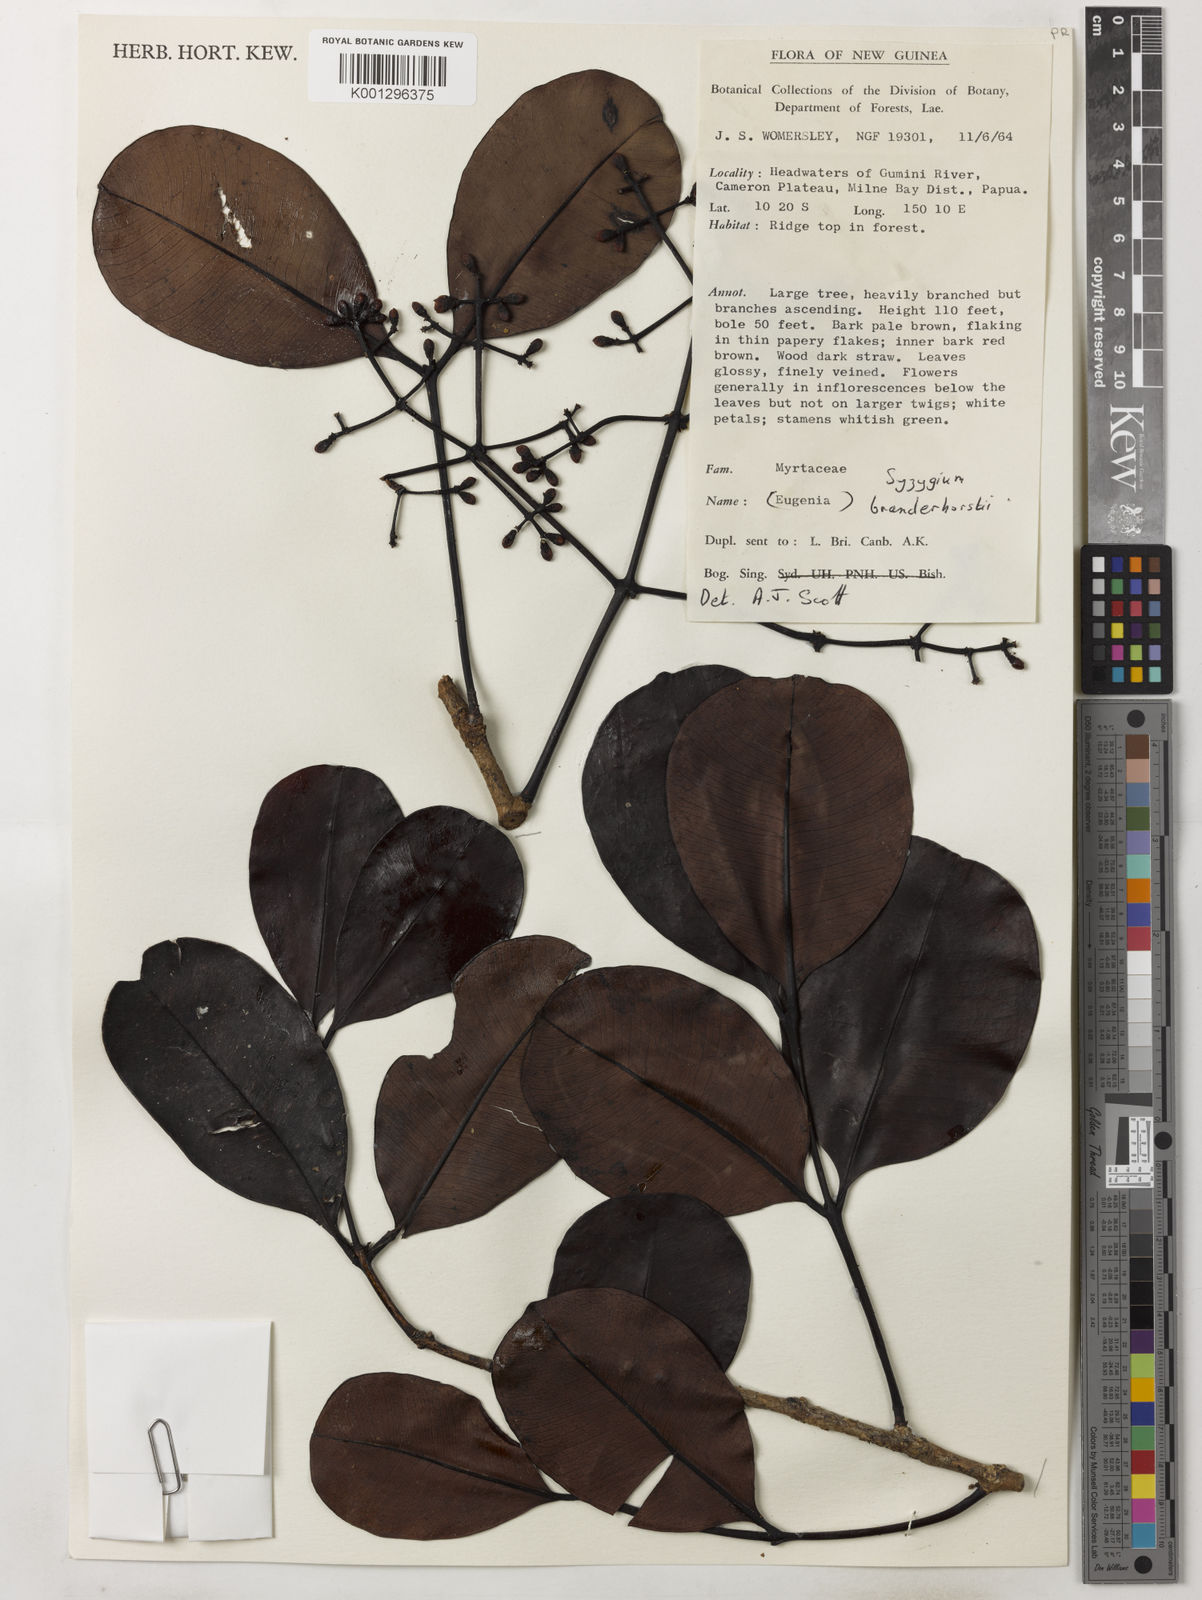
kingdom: Plantae
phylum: Tracheophyta
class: Magnoliopsida
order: Myrtales
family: Myrtaceae
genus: Syzygium
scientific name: Syzygium branderhorstii
